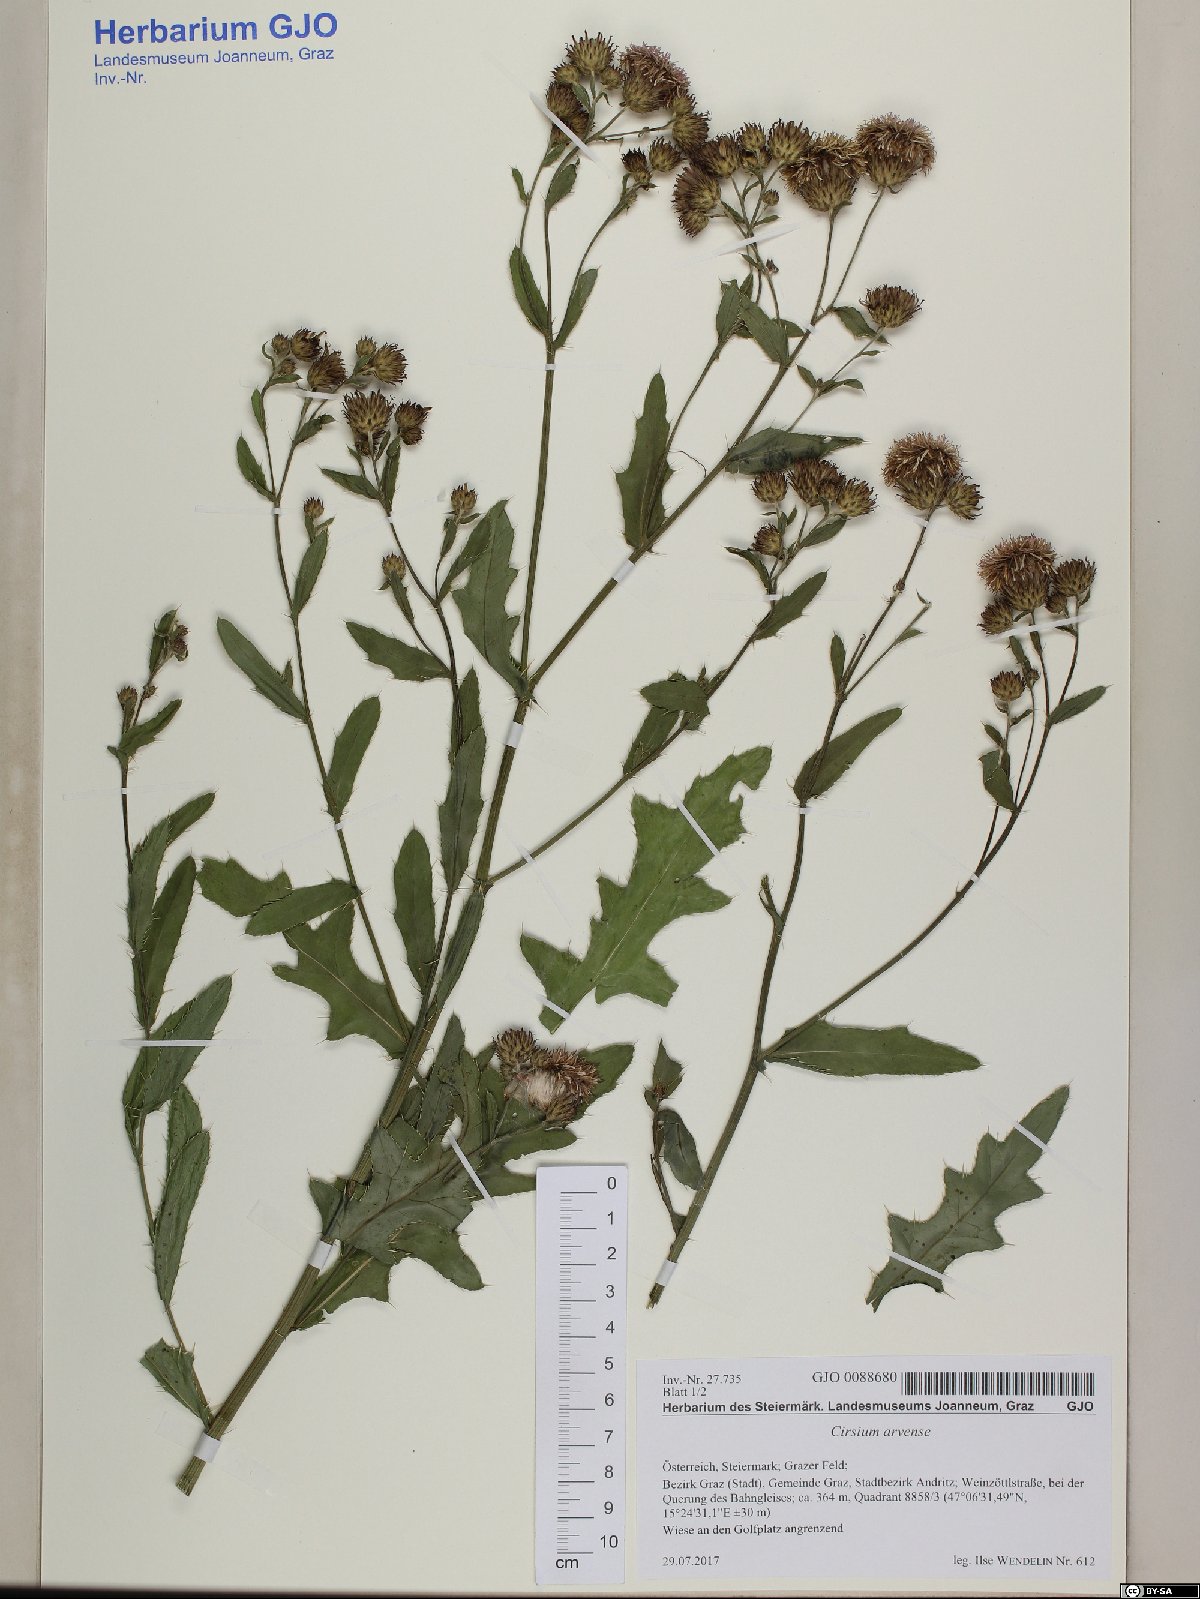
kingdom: Plantae
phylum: Tracheophyta
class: Magnoliopsida
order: Asterales
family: Asteraceae
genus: Cirsium
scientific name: Cirsium arvense
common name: Creeping thistle
